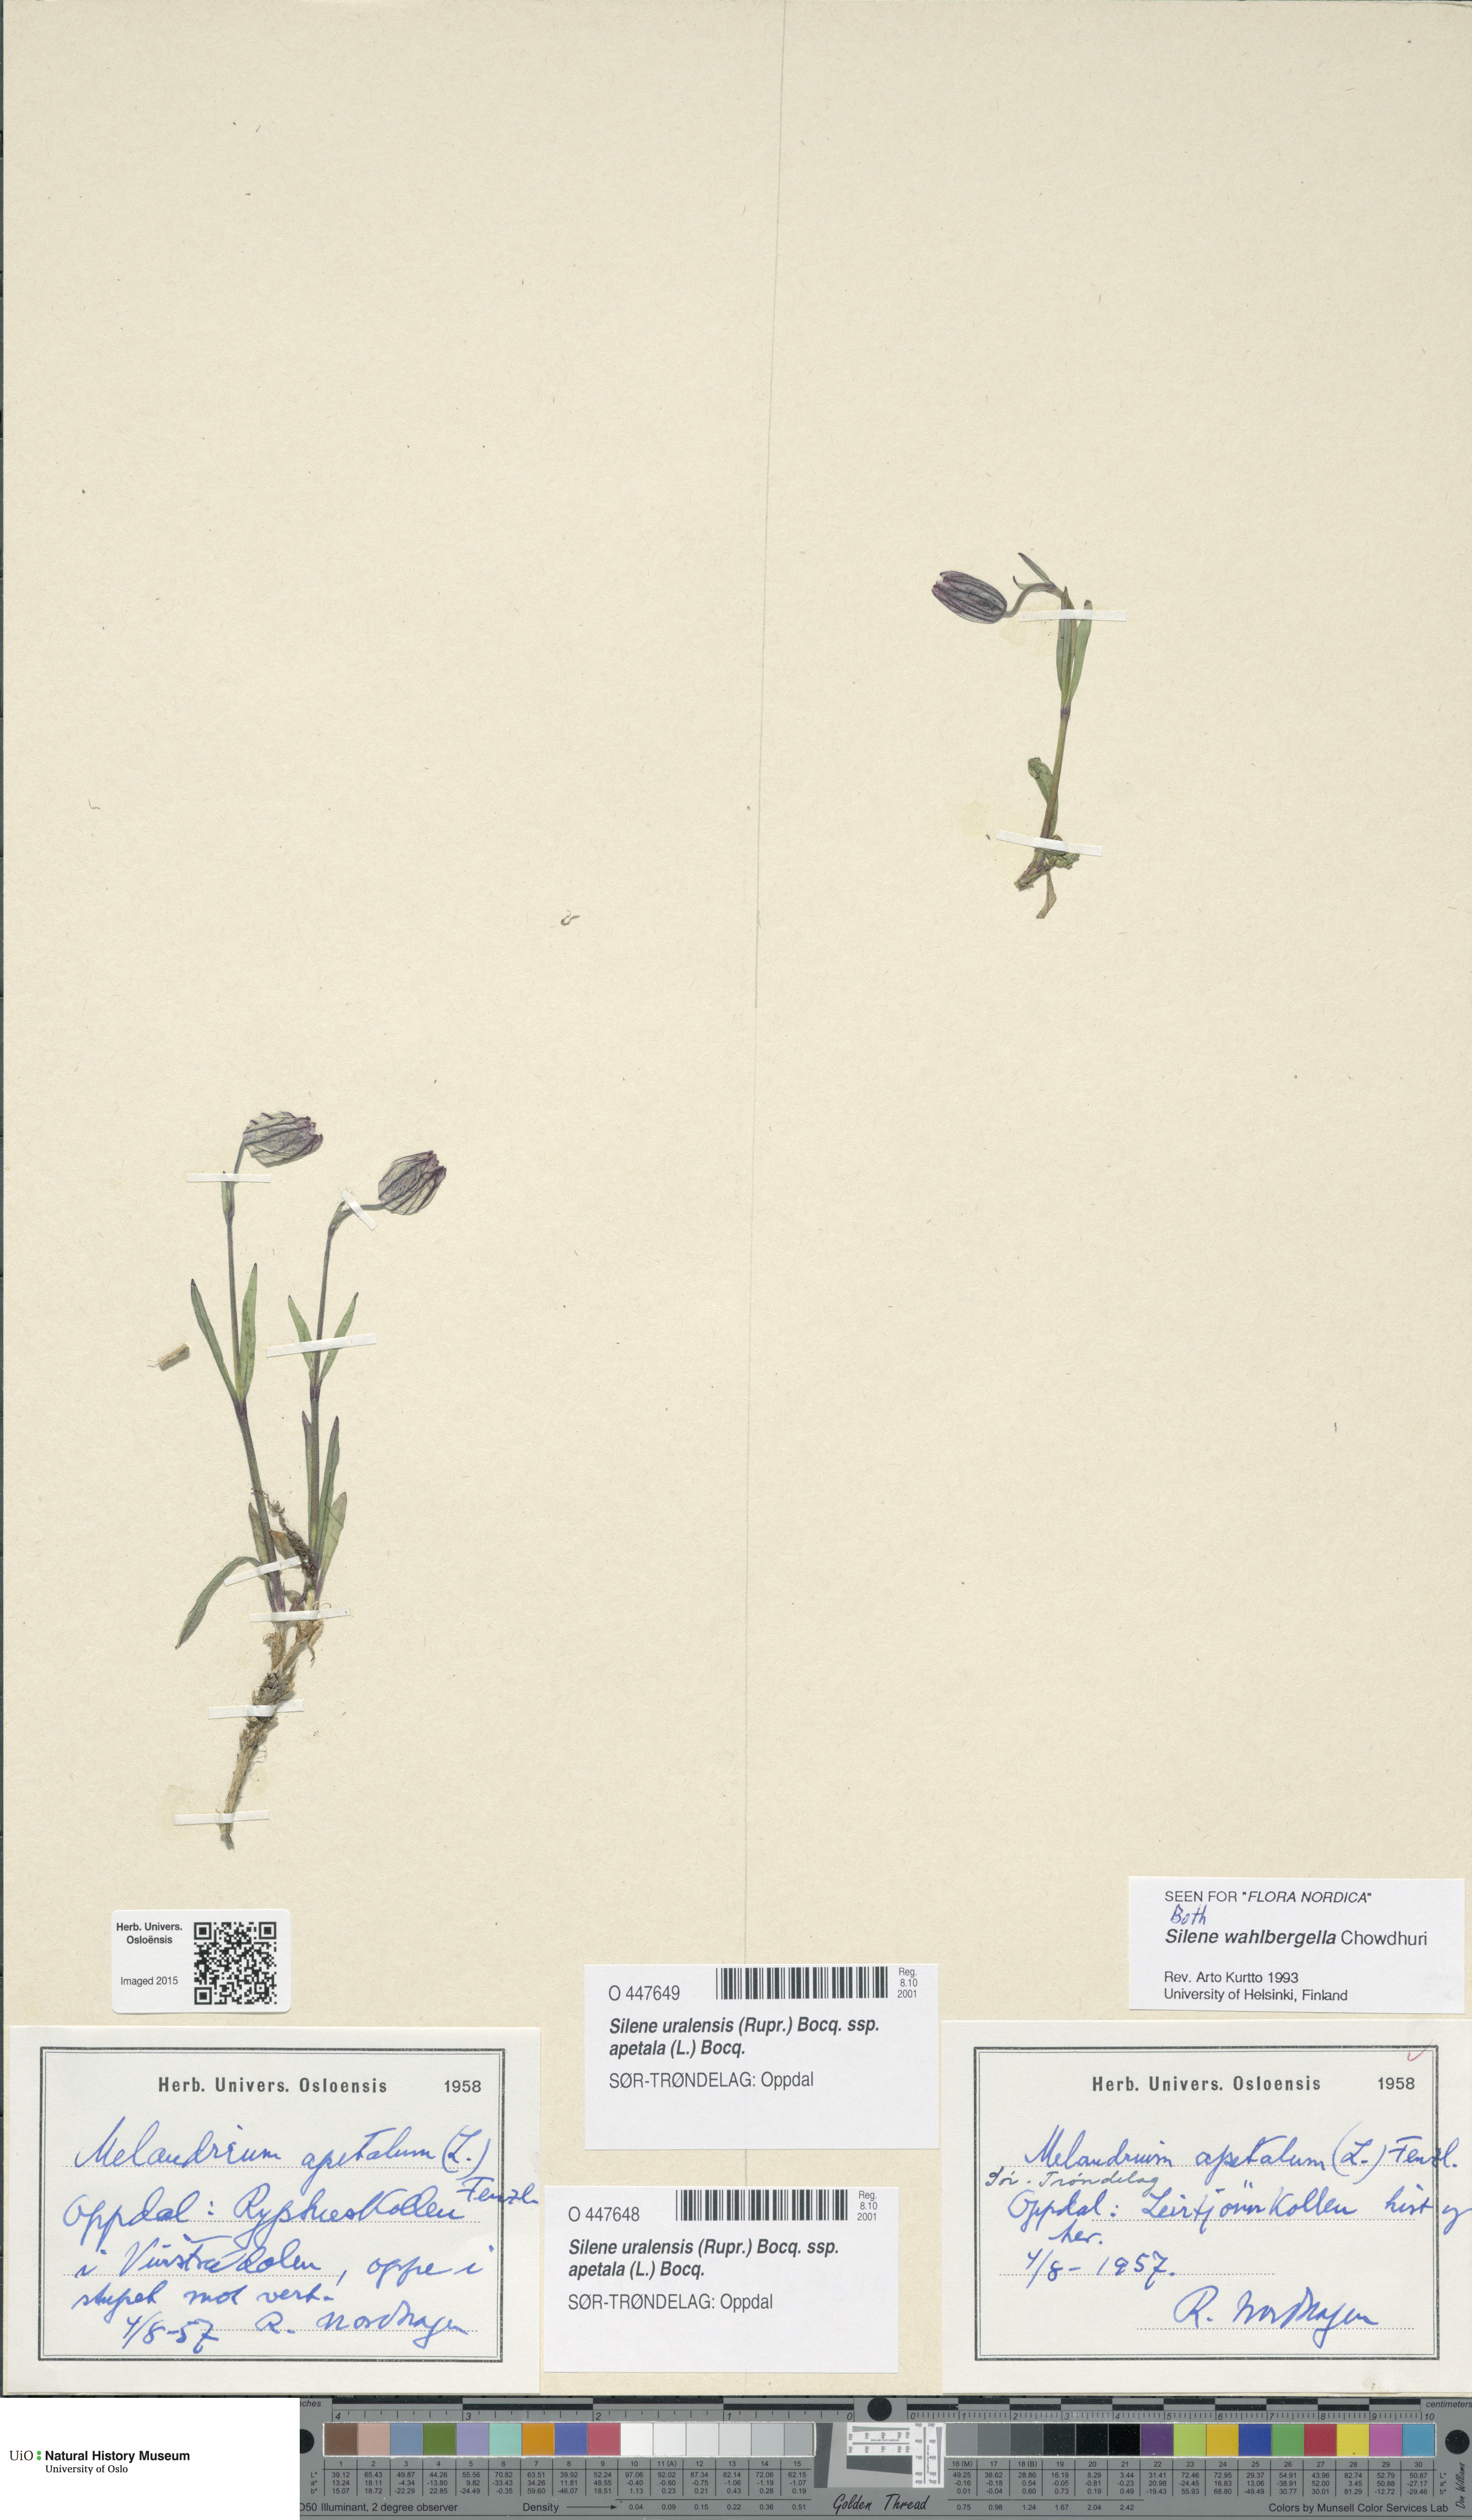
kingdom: Plantae
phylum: Tracheophyta
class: Magnoliopsida
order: Caryophyllales
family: Caryophyllaceae
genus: Silene
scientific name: Silene wahlbergella
